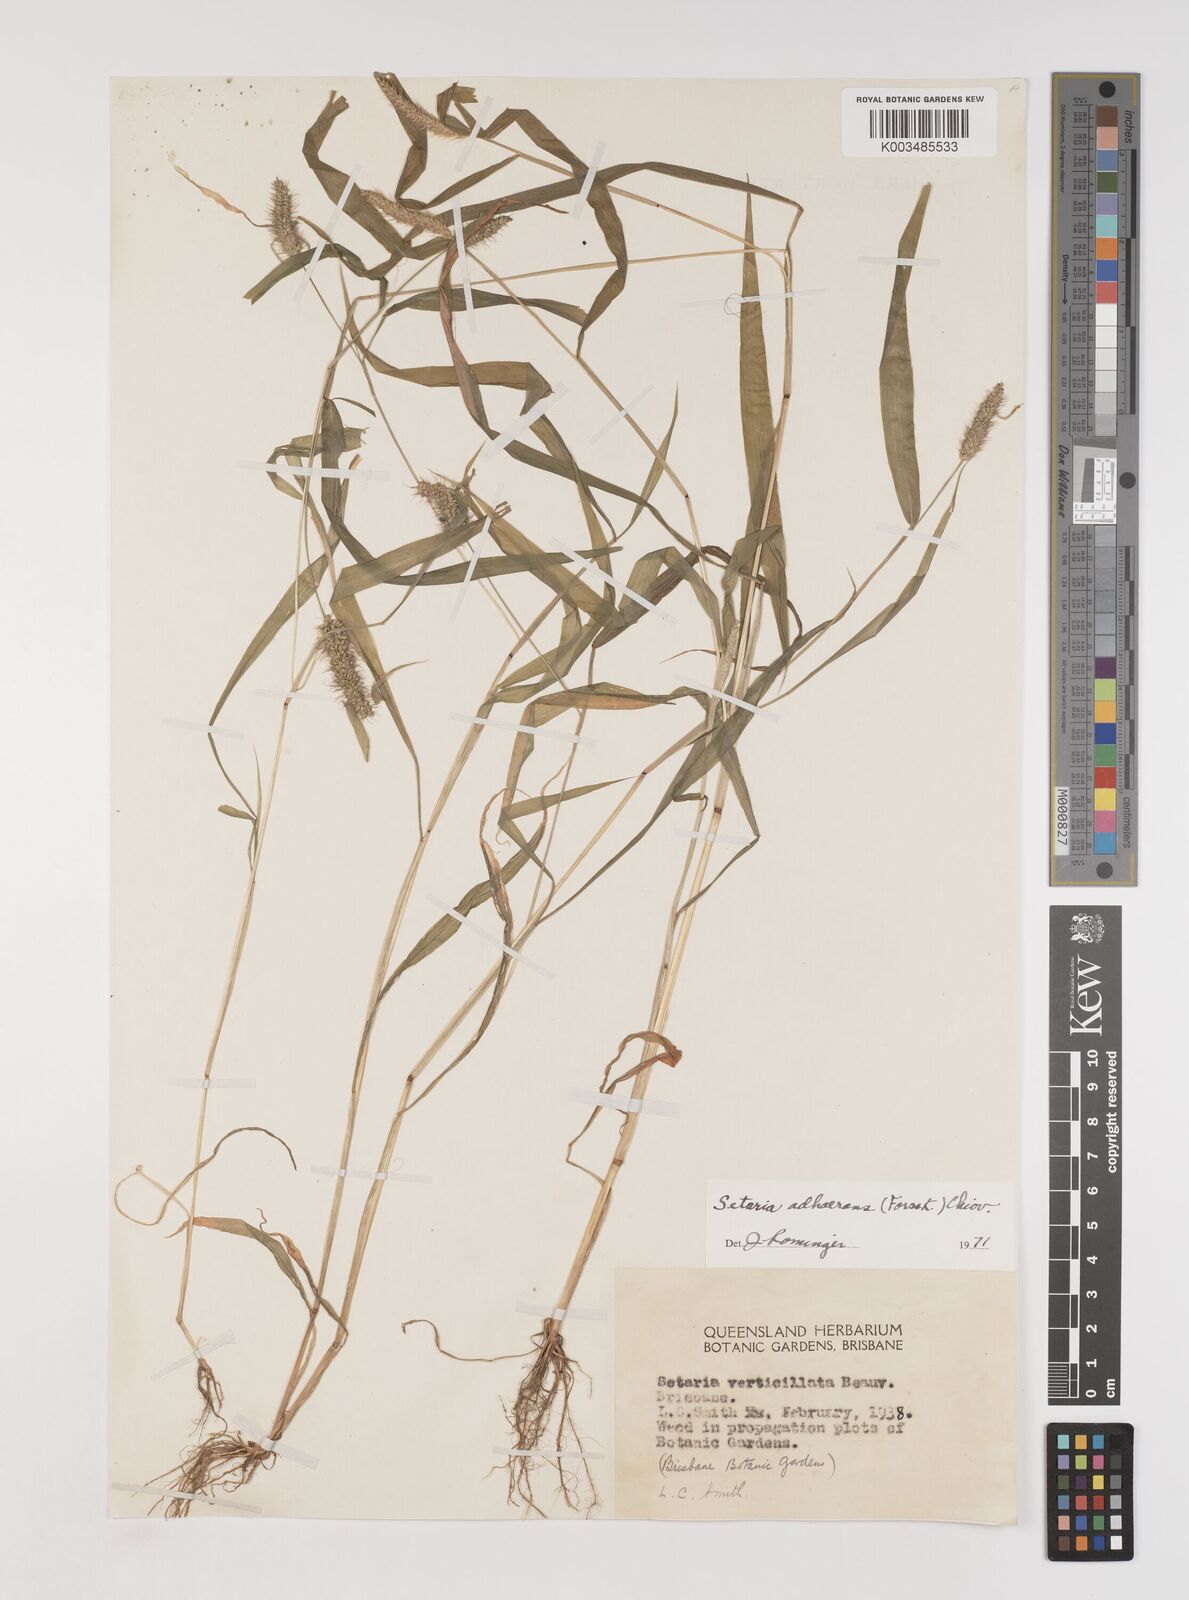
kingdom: Plantae
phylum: Tracheophyta
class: Liliopsida
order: Poales
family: Poaceae
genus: Setaria
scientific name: Setaria verticillata
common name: Hooked bristlegrass
